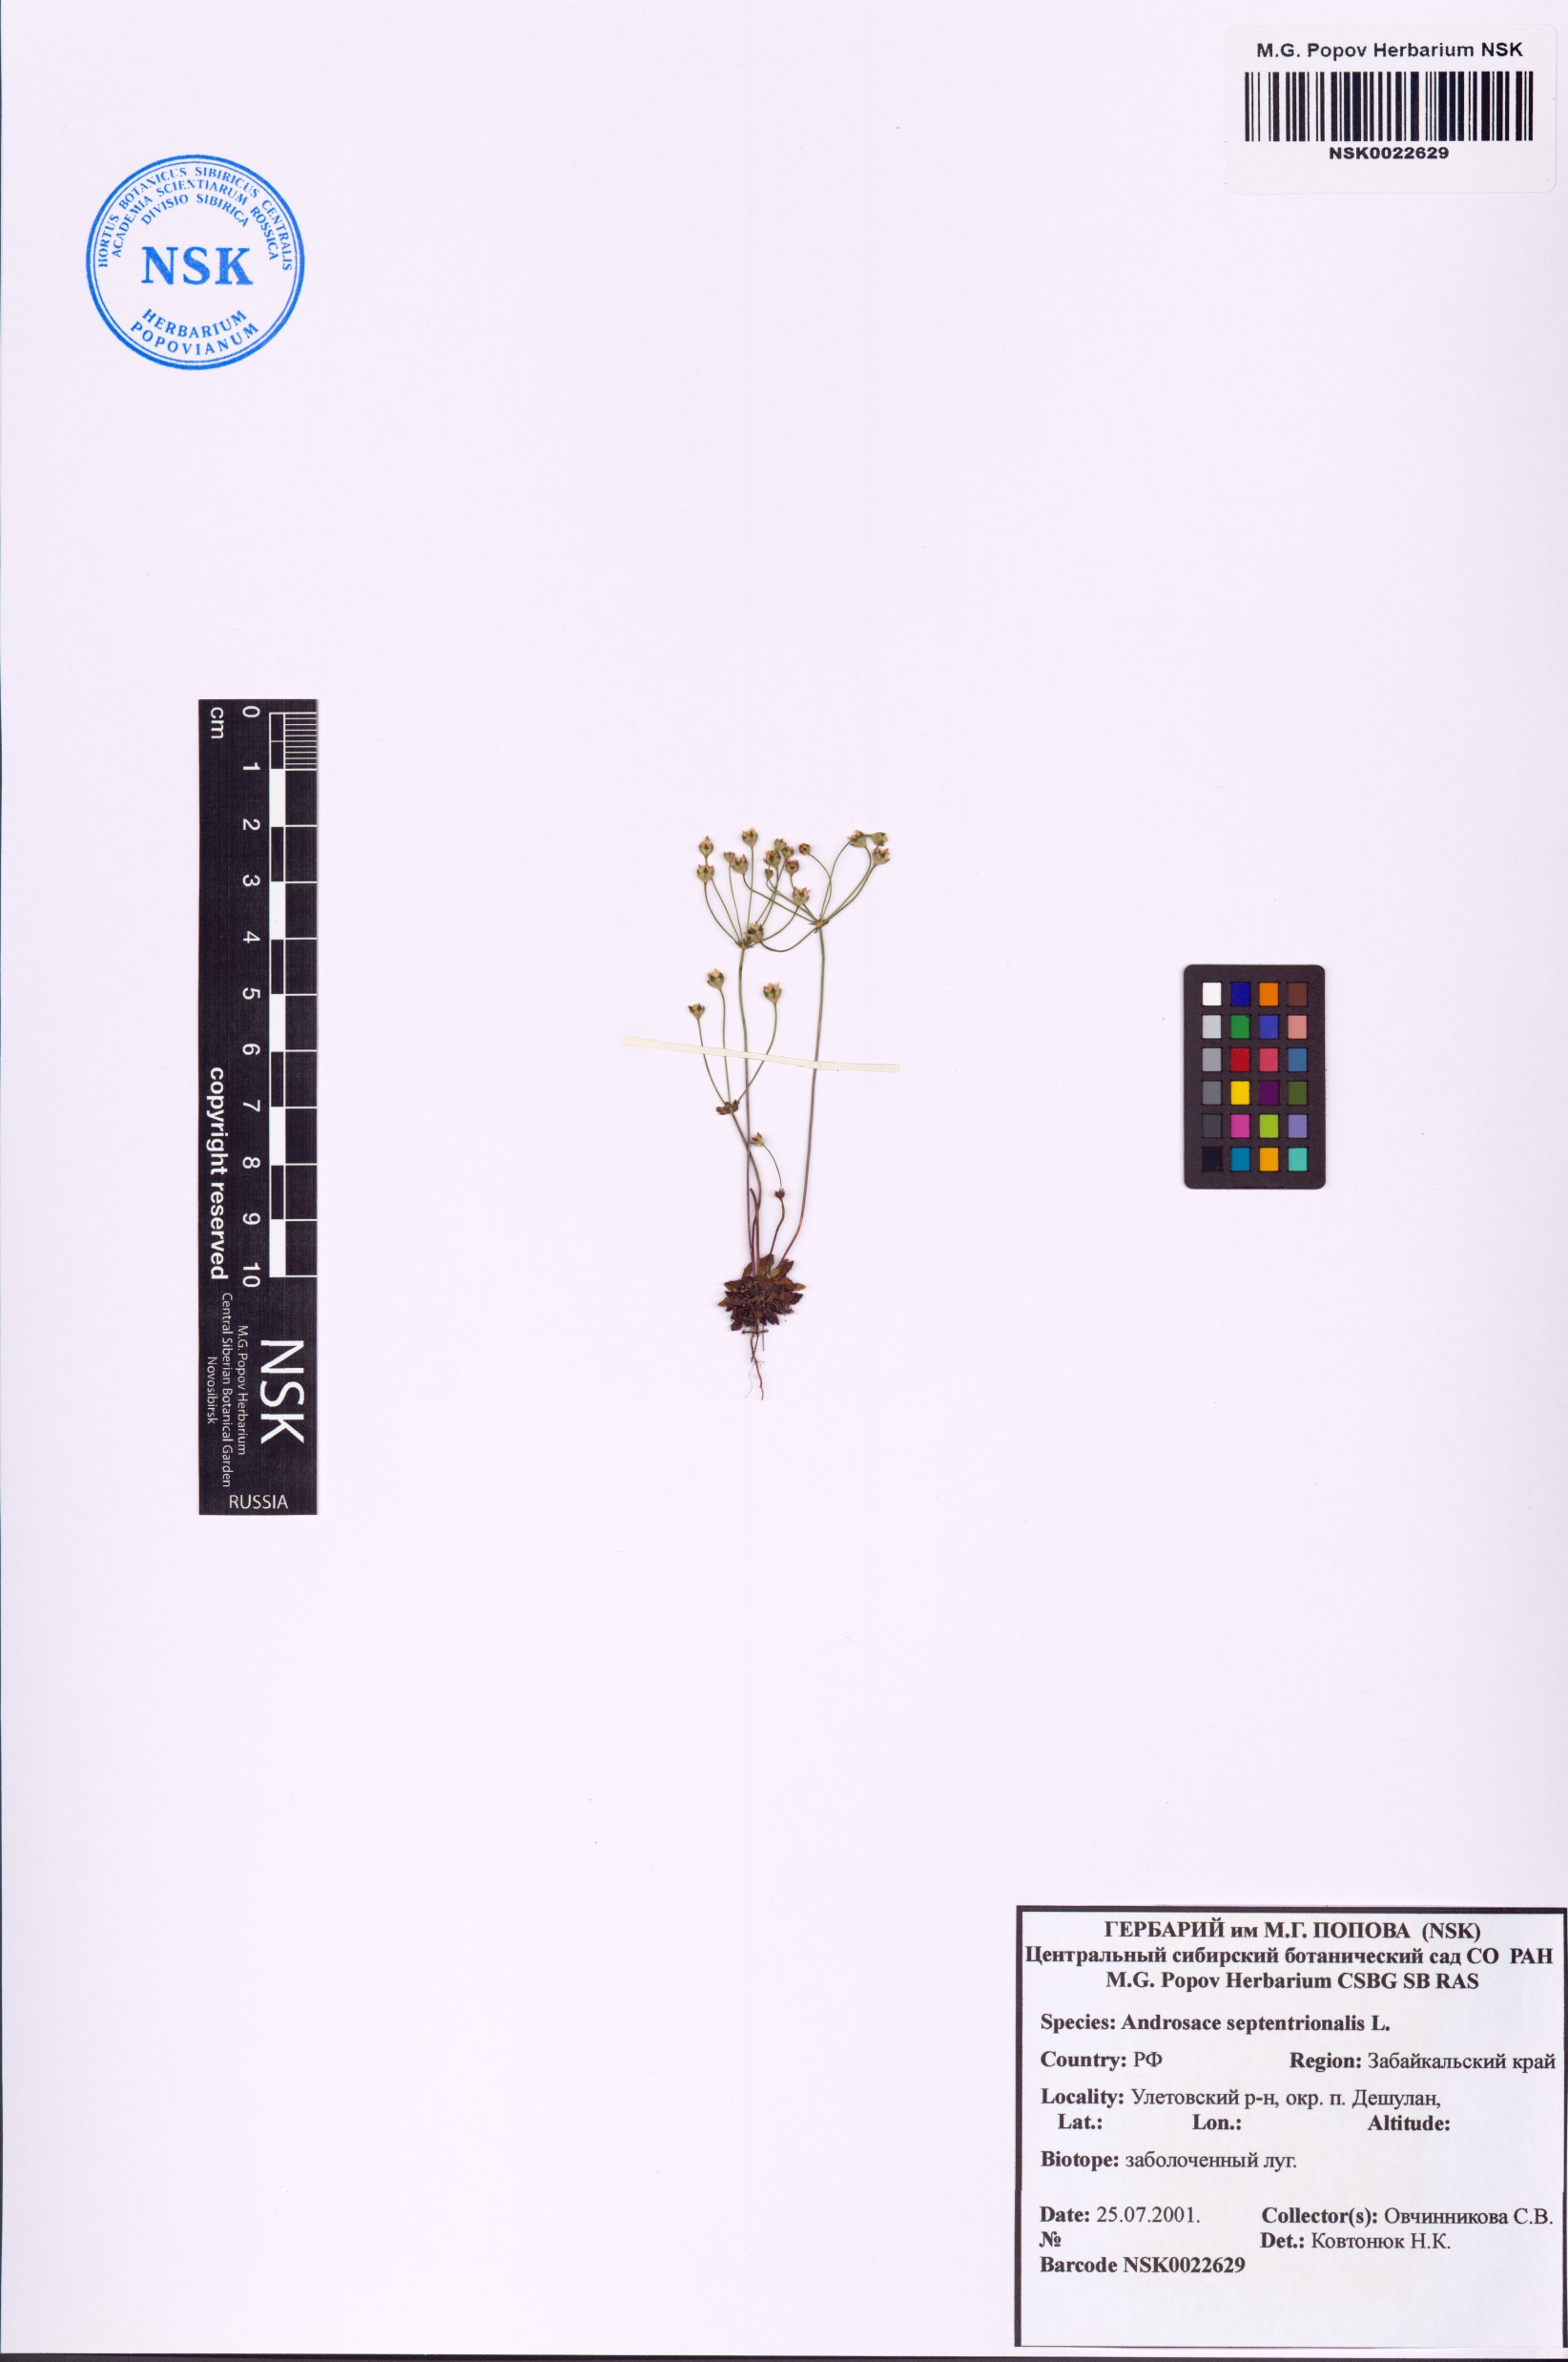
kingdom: Plantae
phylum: Tracheophyta
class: Magnoliopsida
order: Ericales
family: Primulaceae
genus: Androsace
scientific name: Androsace septentrionalis
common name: Hairy northern fairy-candelabra
